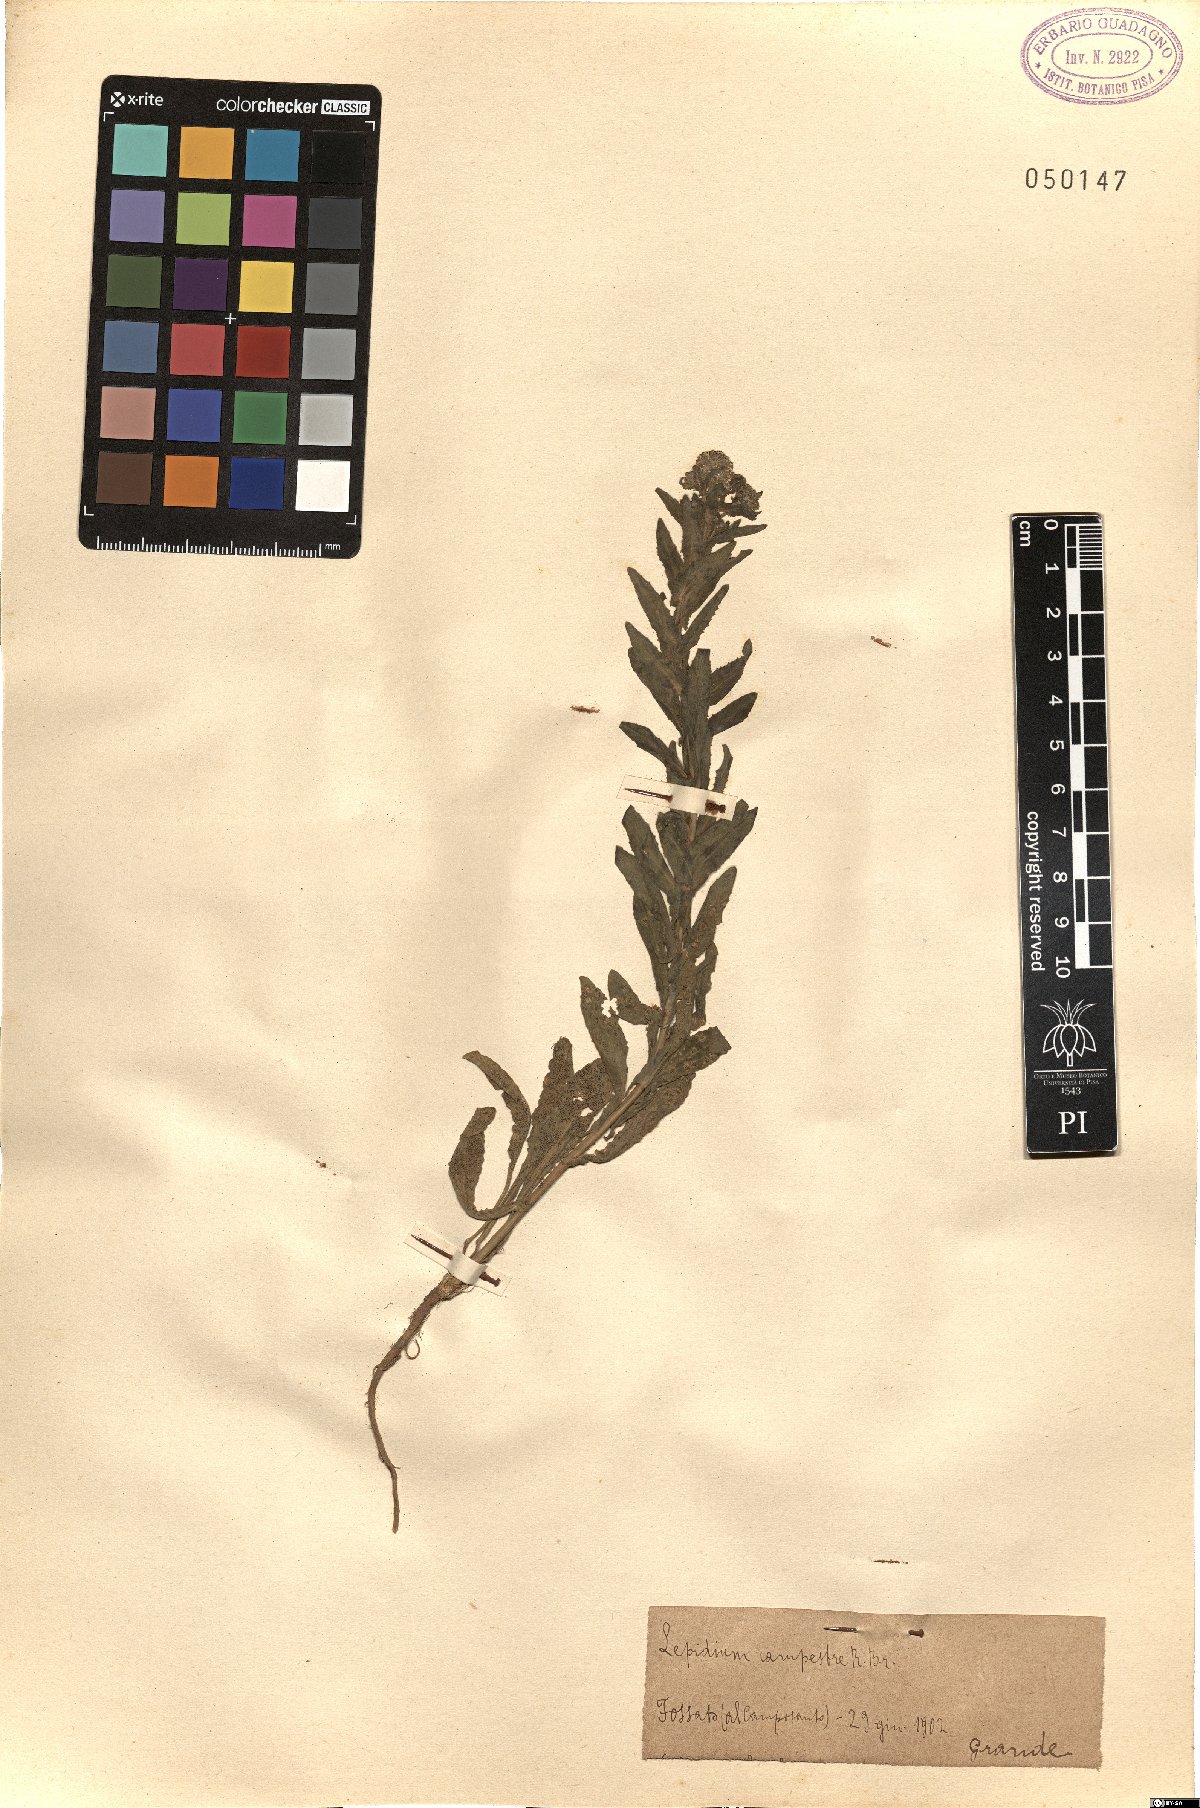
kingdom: Plantae
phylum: Tracheophyta
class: Magnoliopsida
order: Brassicales
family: Brassicaceae
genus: Lepidium
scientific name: Lepidium campestre
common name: Field pepperwort
